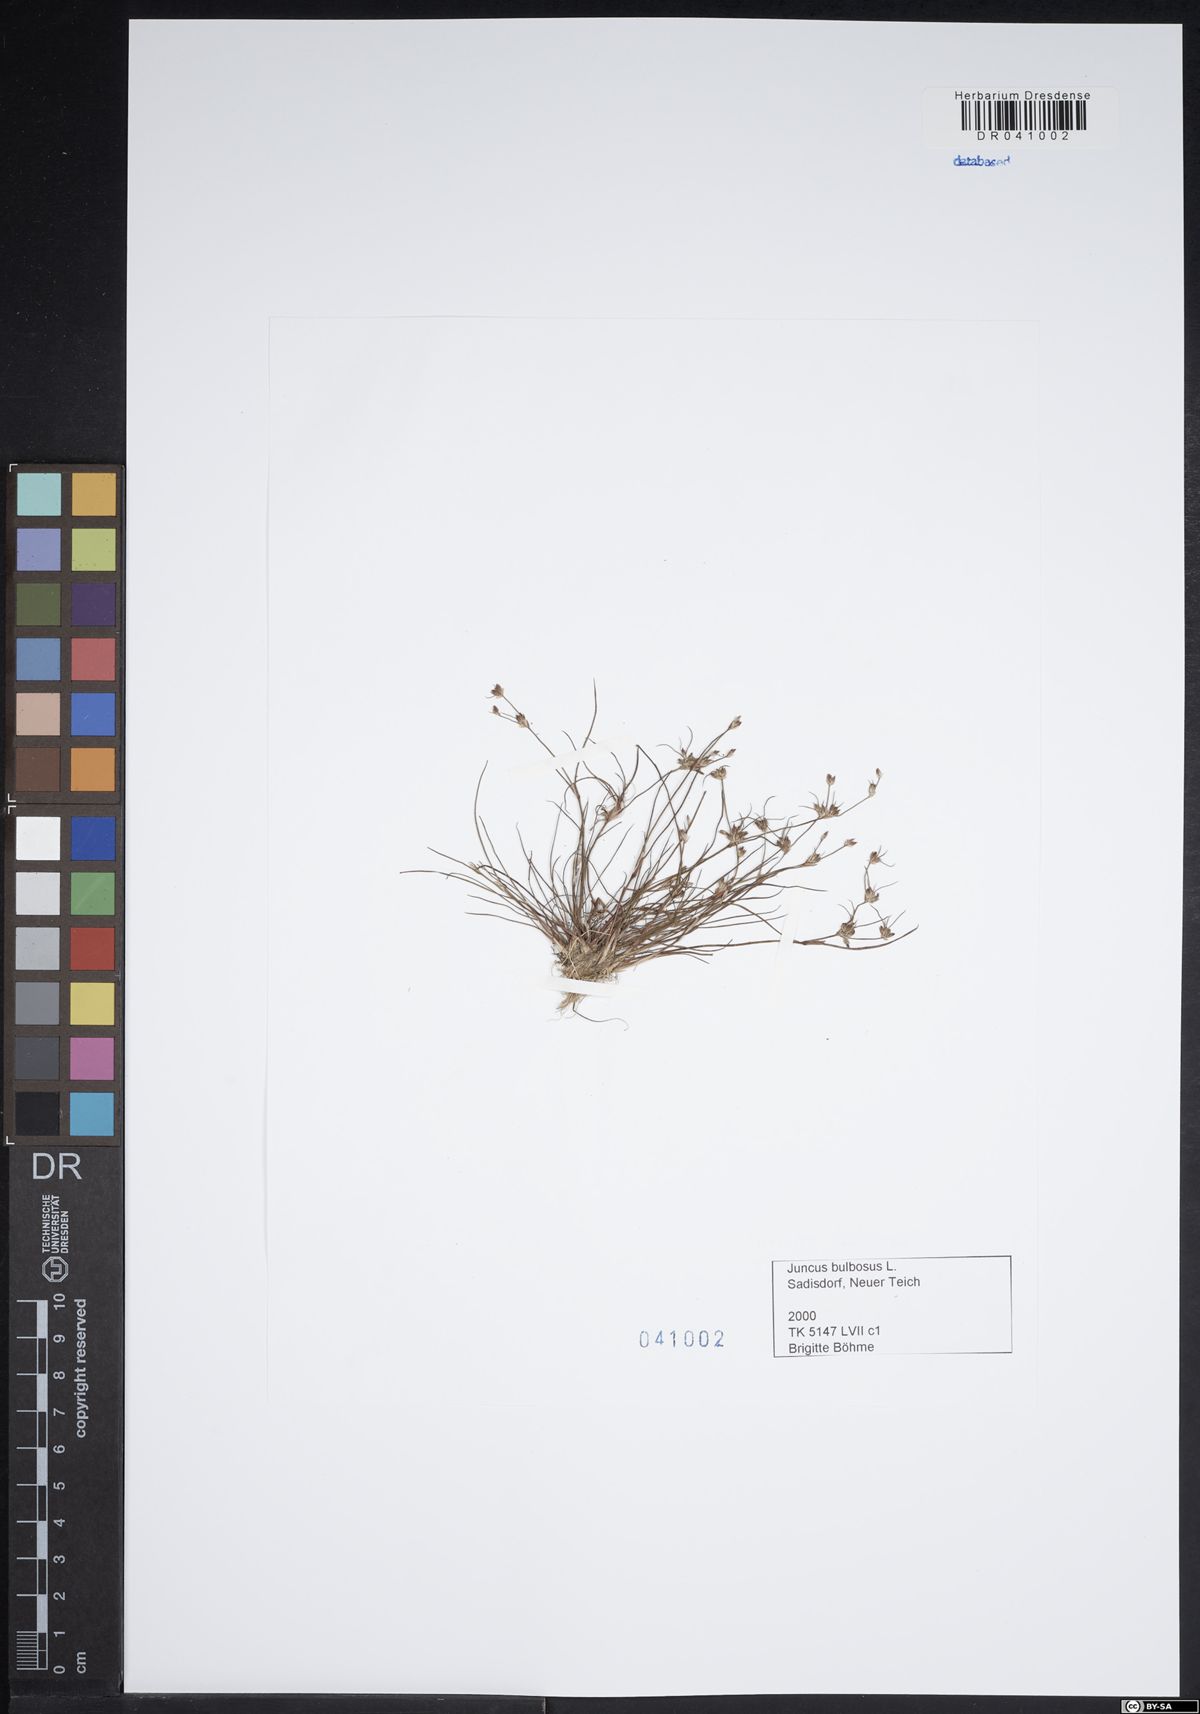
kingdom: Plantae
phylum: Tracheophyta
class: Liliopsida
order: Poales
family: Juncaceae
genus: Juncus
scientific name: Juncus bulbosus
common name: Bulbous rush
